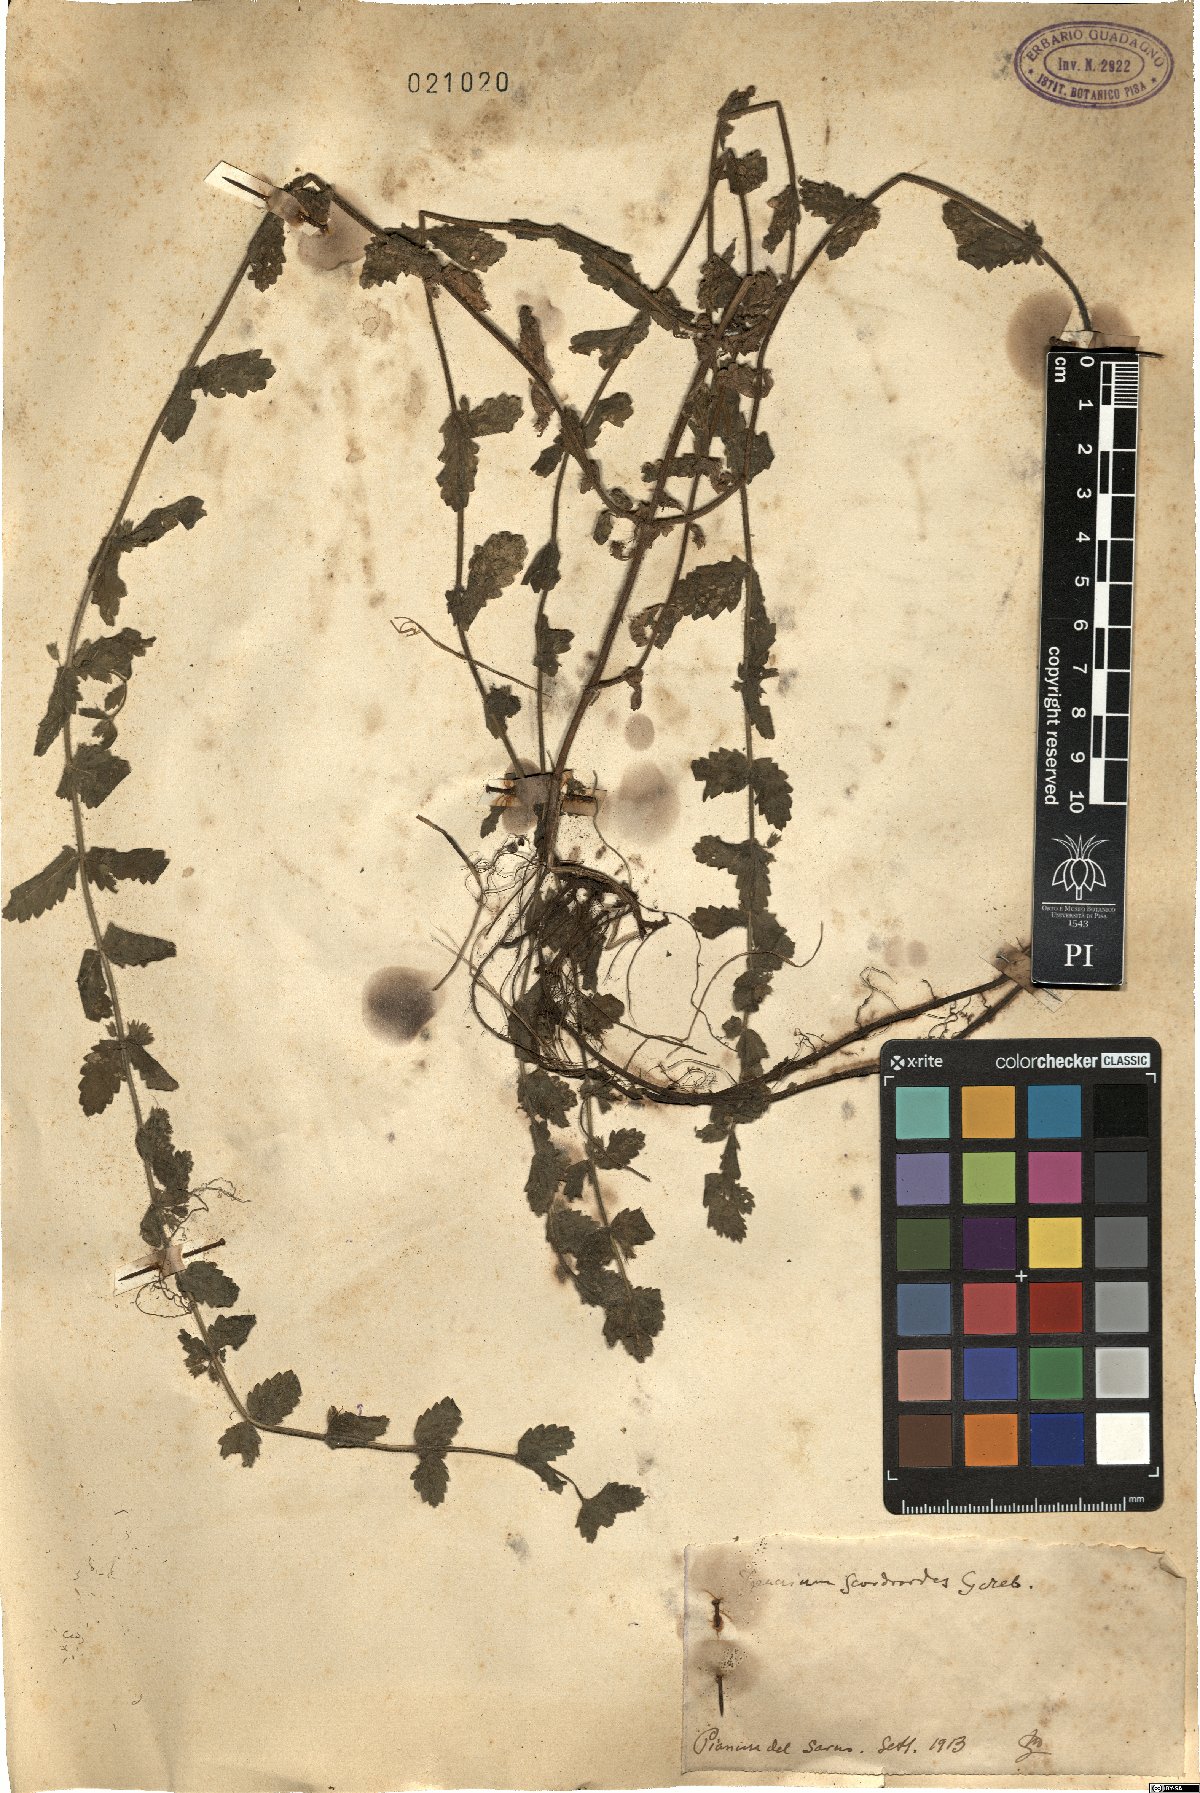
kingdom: Plantae
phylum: Tracheophyta
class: Magnoliopsida
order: Lamiales
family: Lamiaceae
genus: Teucrium
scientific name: Teucrium scordium
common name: Water germander
